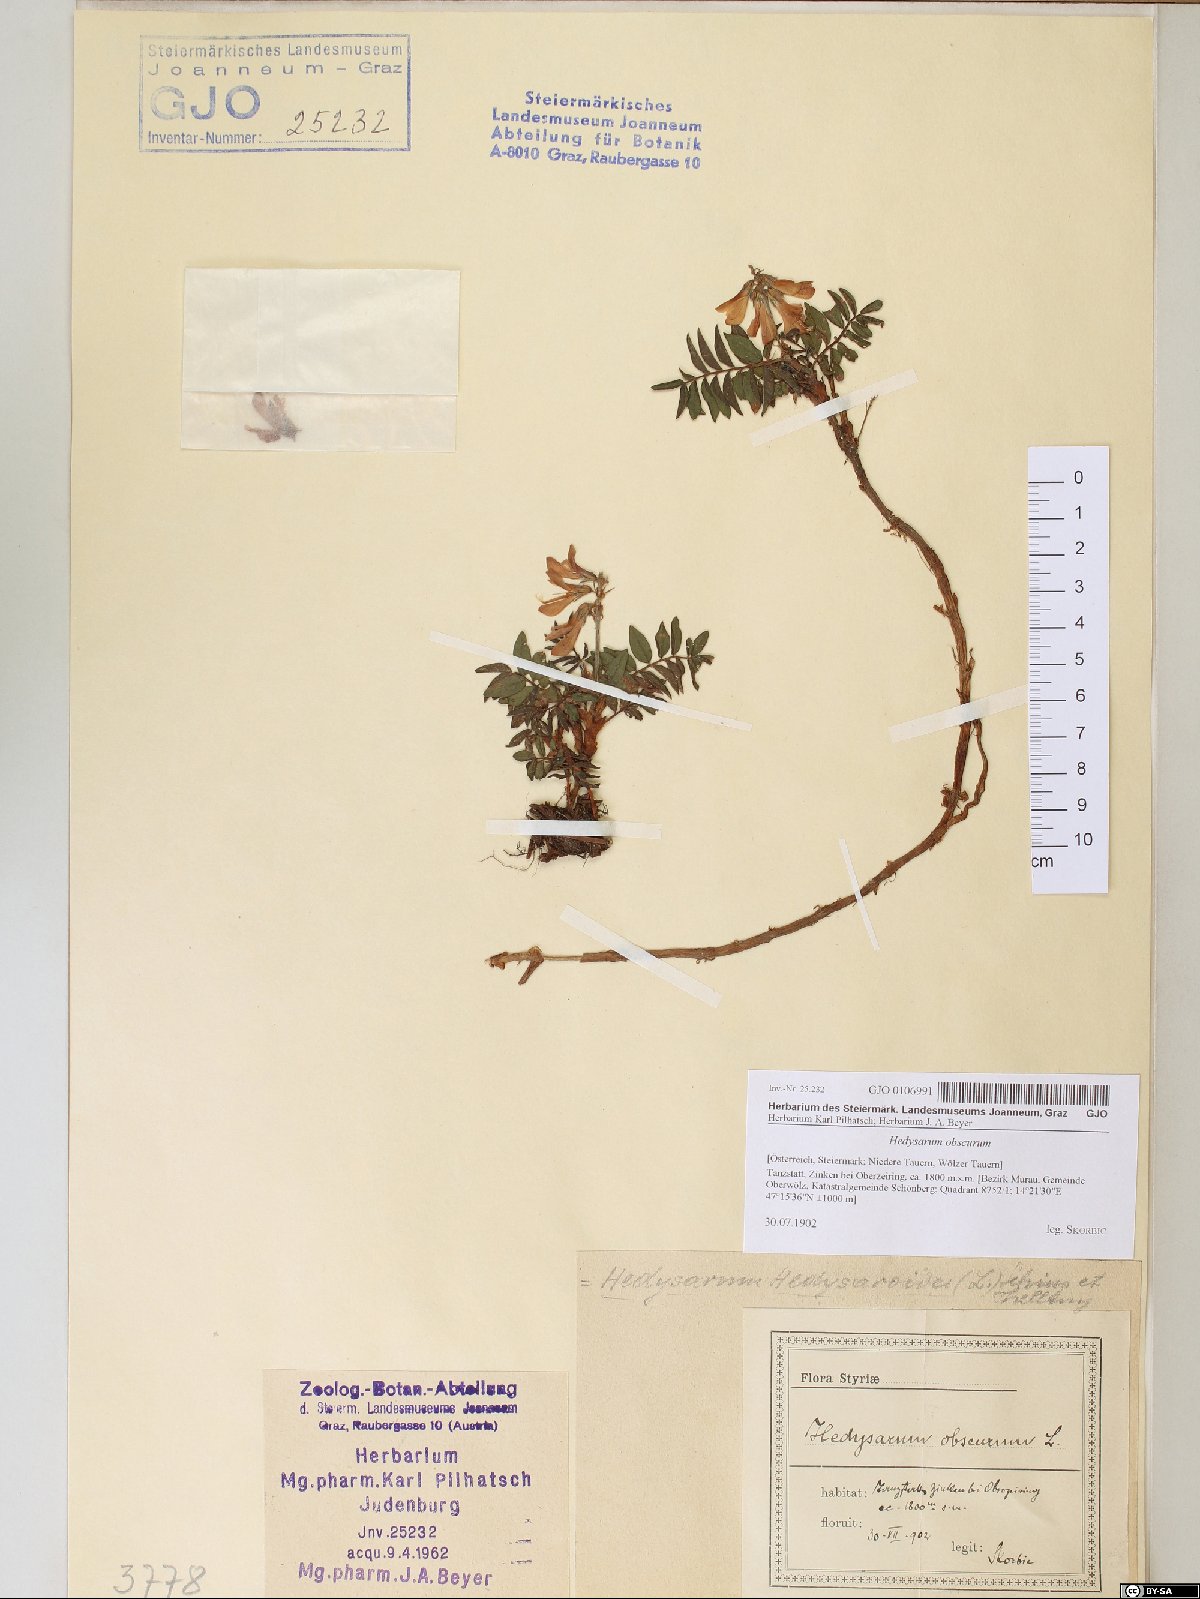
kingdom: Plantae
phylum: Tracheophyta
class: Magnoliopsida
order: Fabales
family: Fabaceae
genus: Hedysarum
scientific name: Hedysarum hedysaroides
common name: Alpine french-honeysuckle
